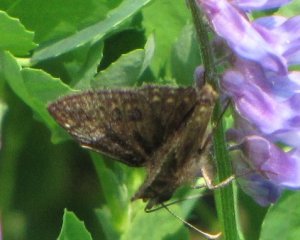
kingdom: Animalia
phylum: Arthropoda
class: Insecta
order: Lepidoptera
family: Hesperiidae
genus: Erynnis
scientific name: Erynnis icelus
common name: Dreamy Duskywing
